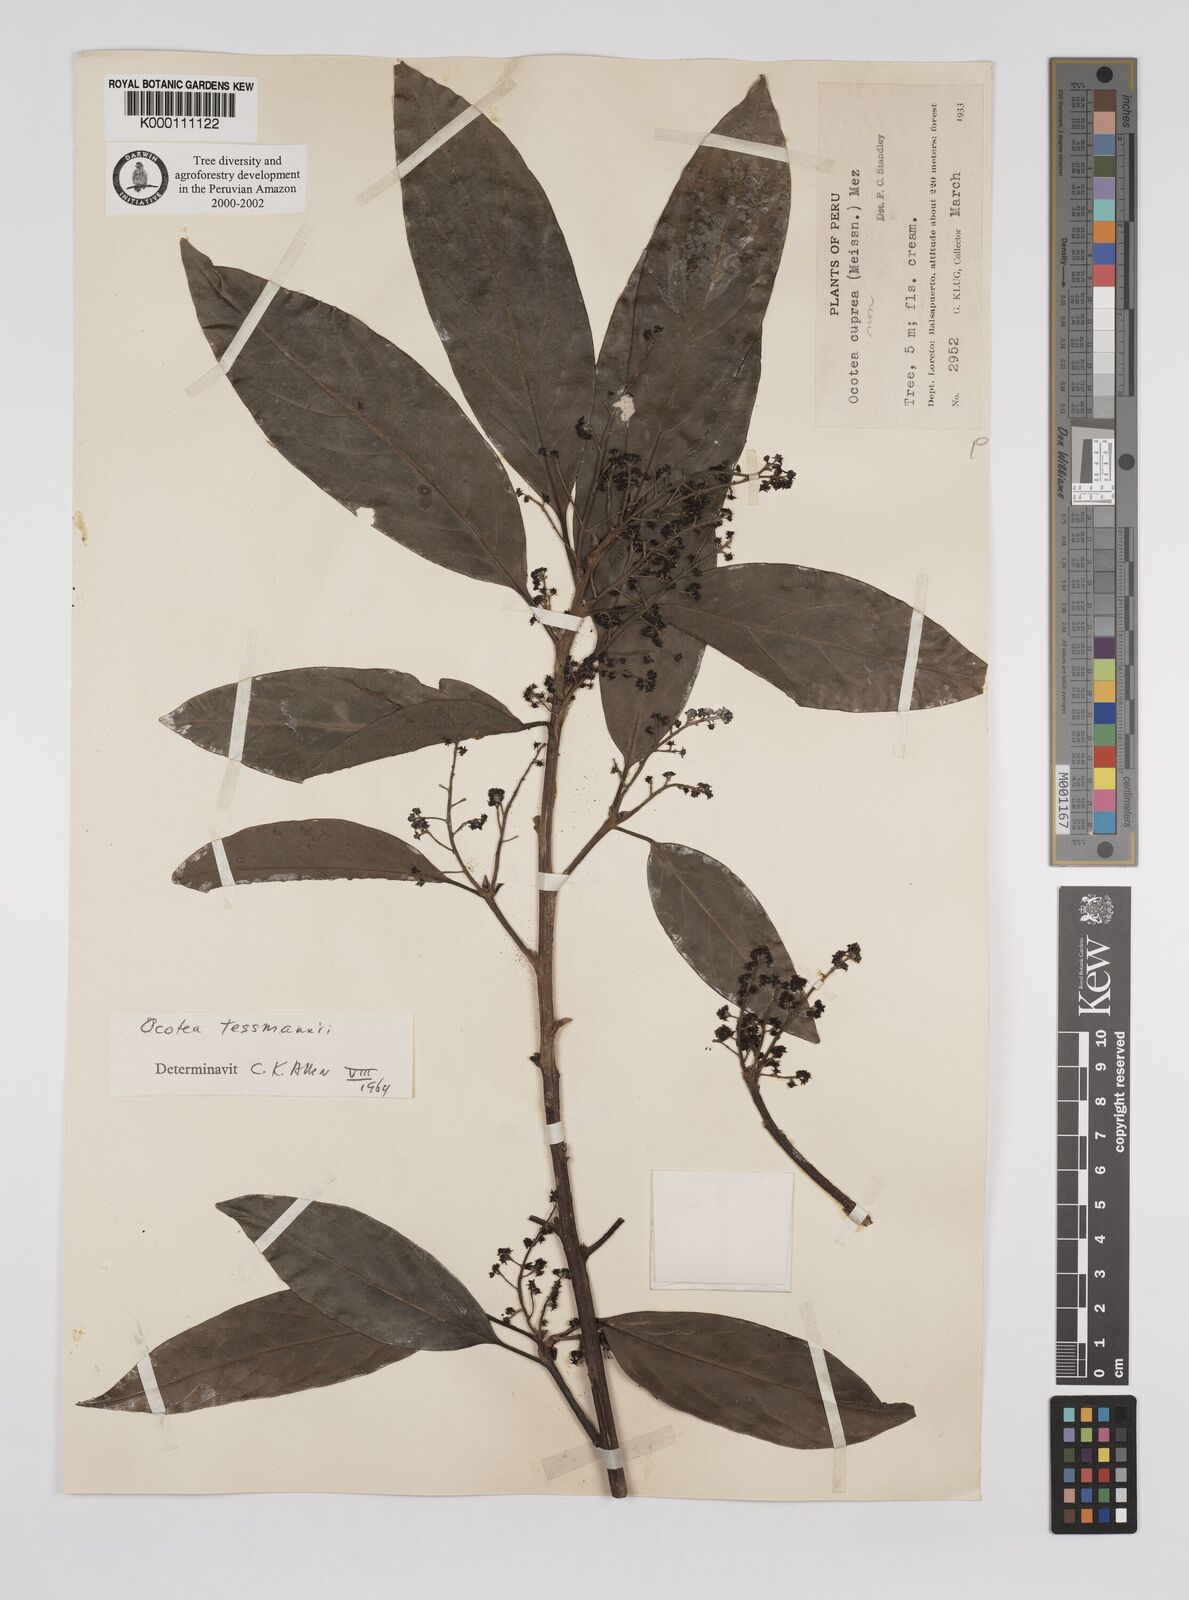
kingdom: Plantae
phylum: Tracheophyta
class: Magnoliopsida
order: Laurales
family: Lauraceae
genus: Ocotea
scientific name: Ocotea tessmannii
